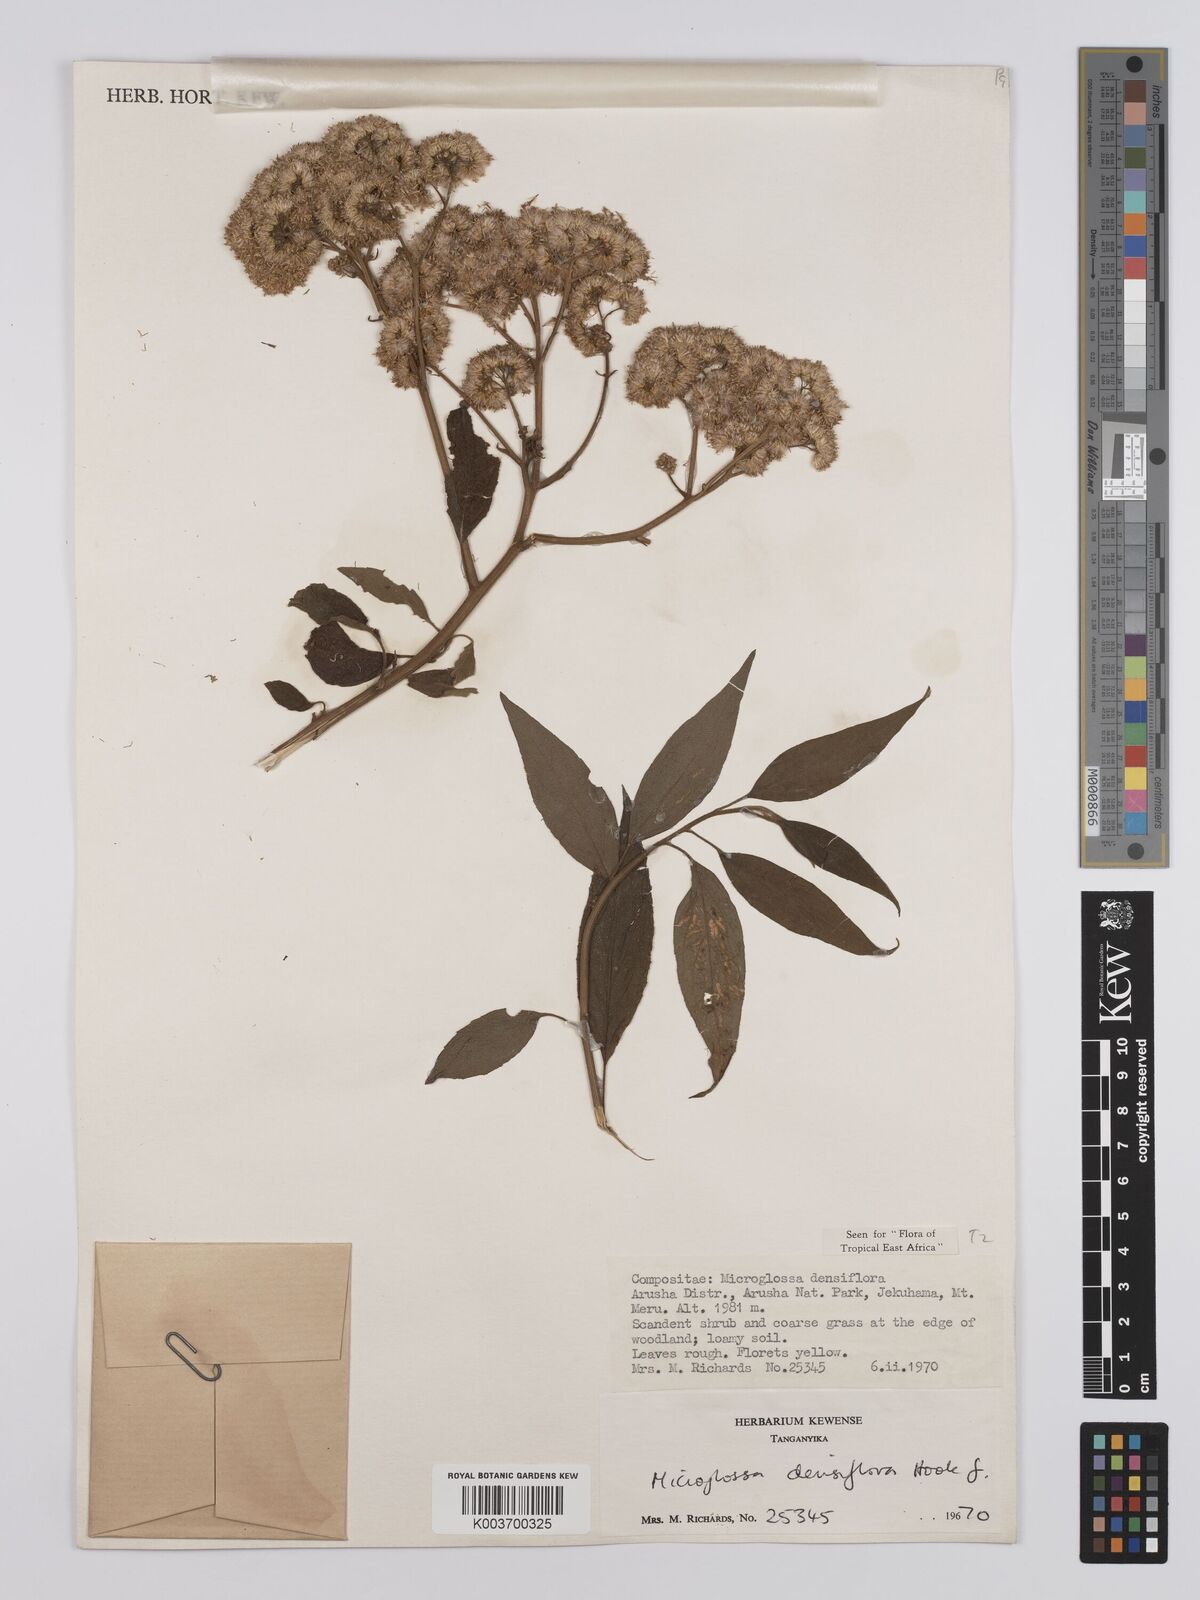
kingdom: Plantae
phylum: Tracheophyta
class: Magnoliopsida
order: Asterales
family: Asteraceae
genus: Microglossa
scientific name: Microglossa densiflora
